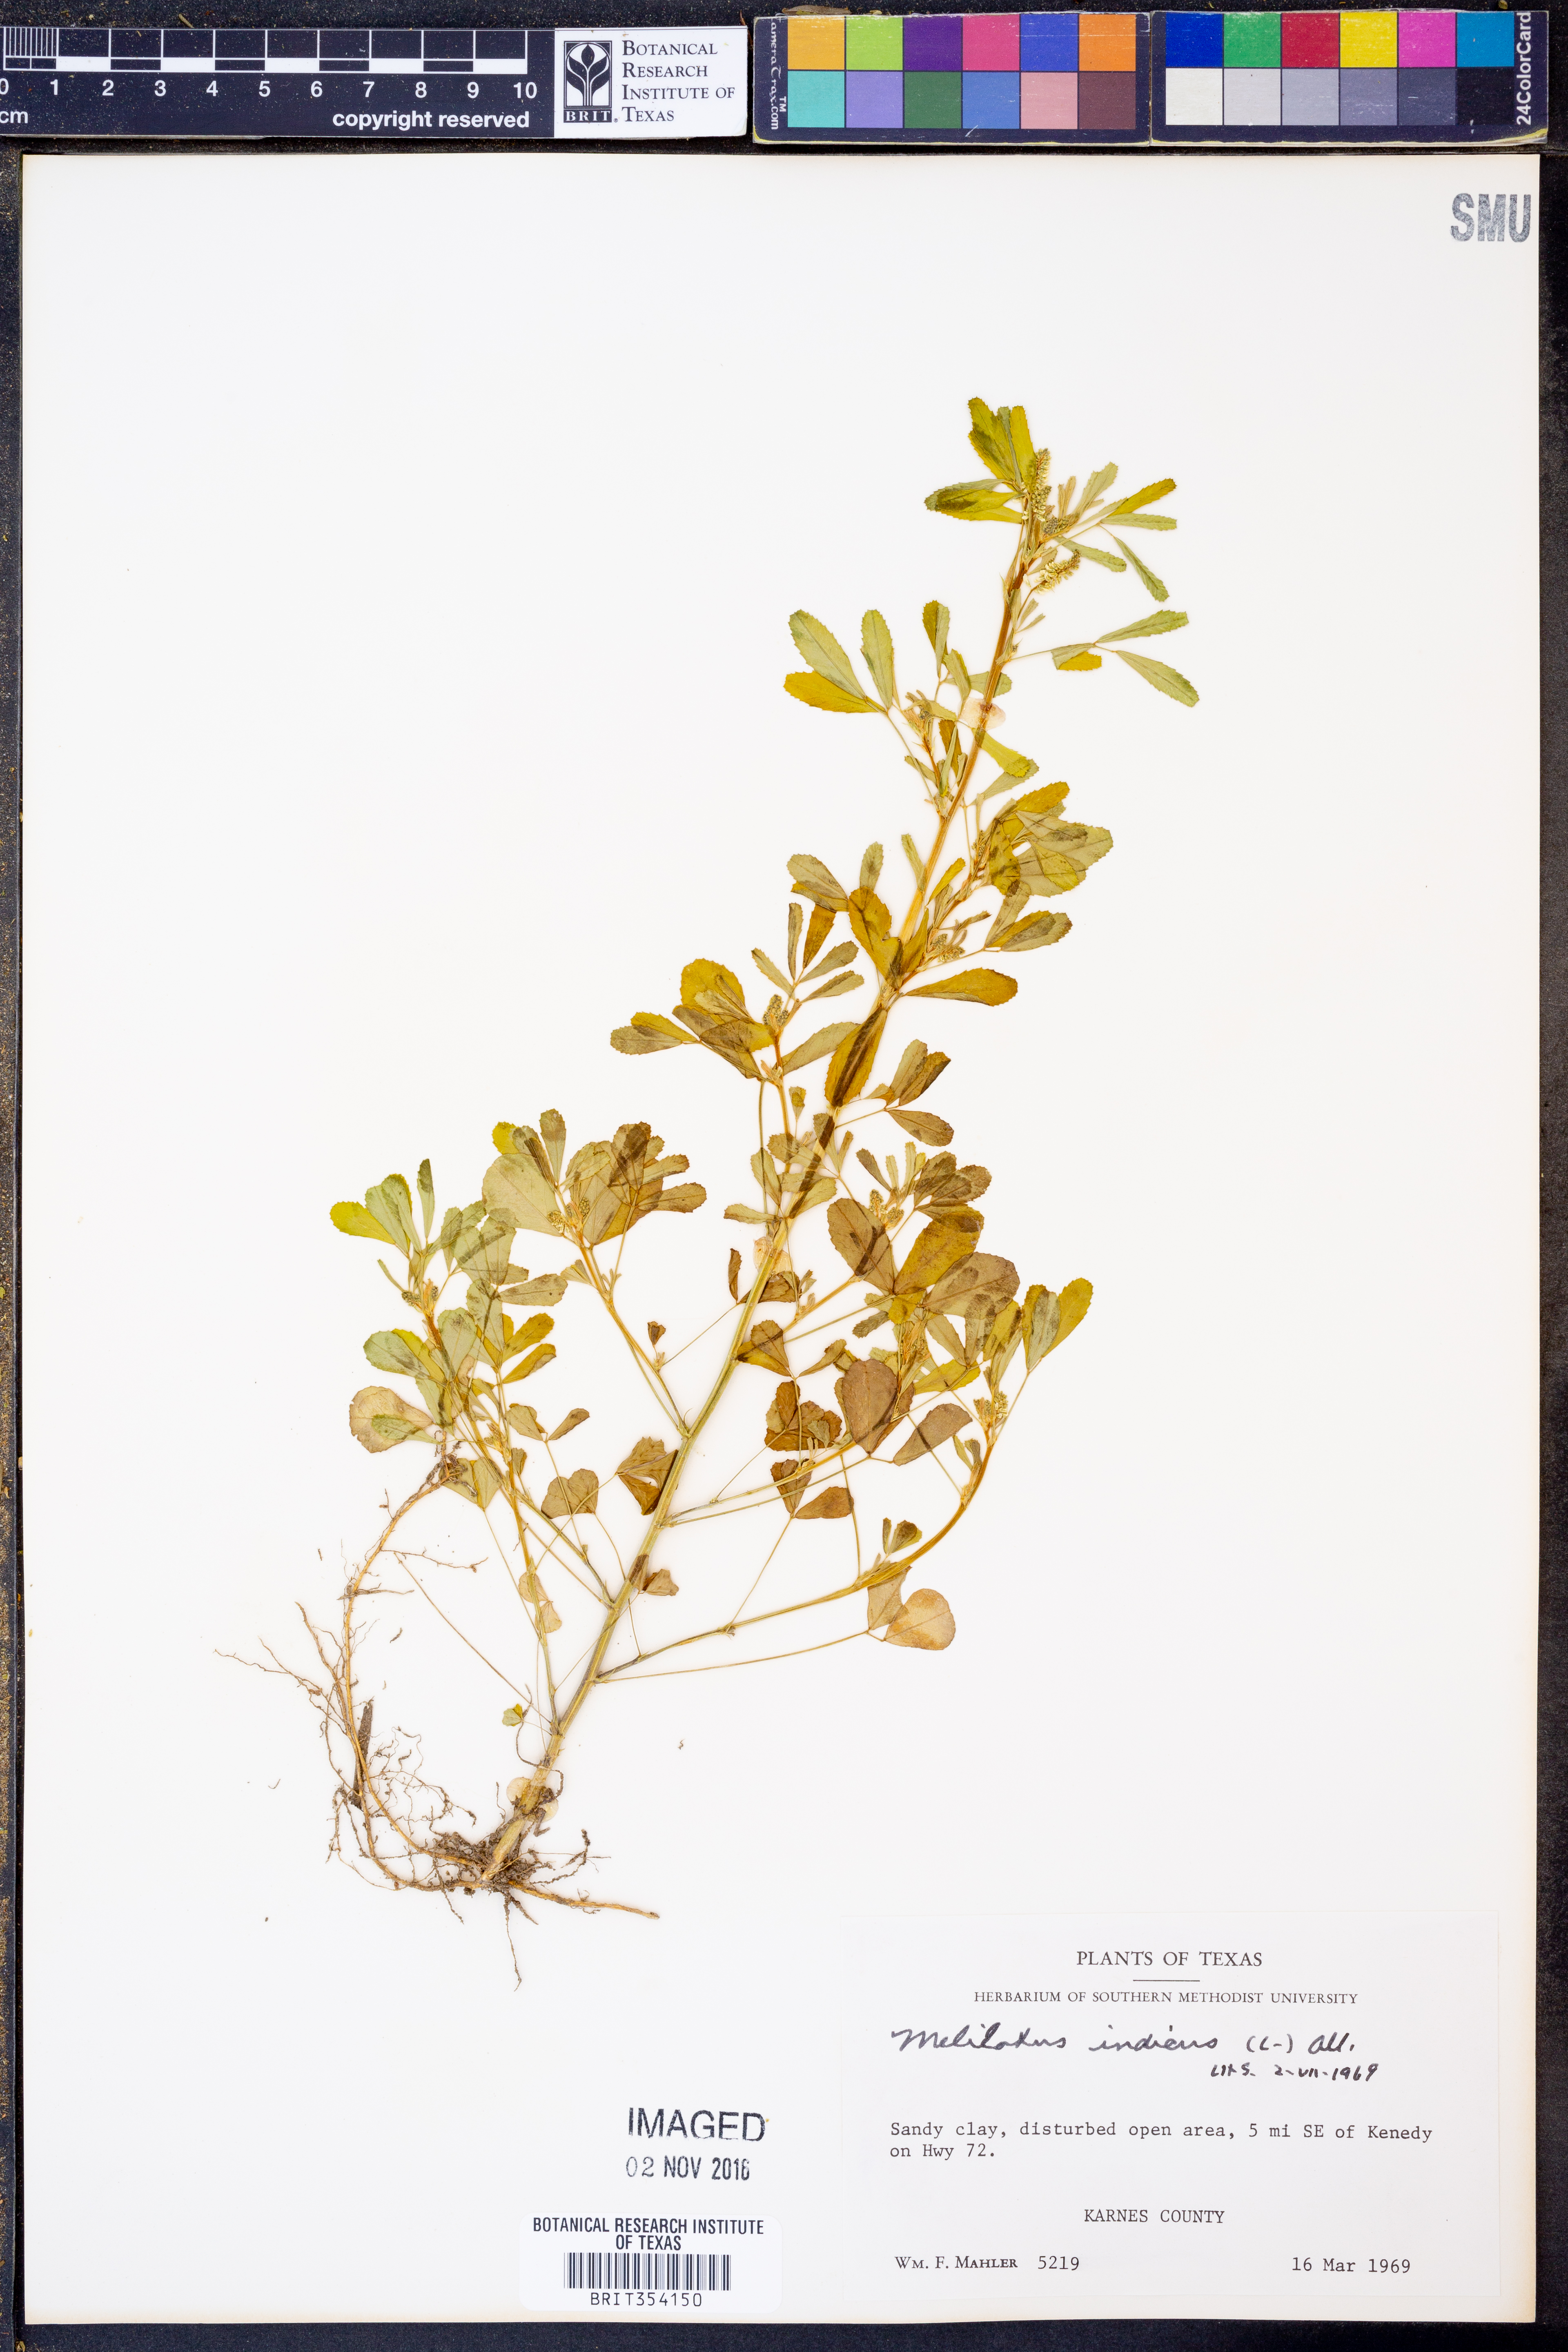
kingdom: Plantae
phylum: Tracheophyta
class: Magnoliopsida
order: Fabales
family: Fabaceae
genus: Melilotus
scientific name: Melilotus indicus
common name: Small melilot
